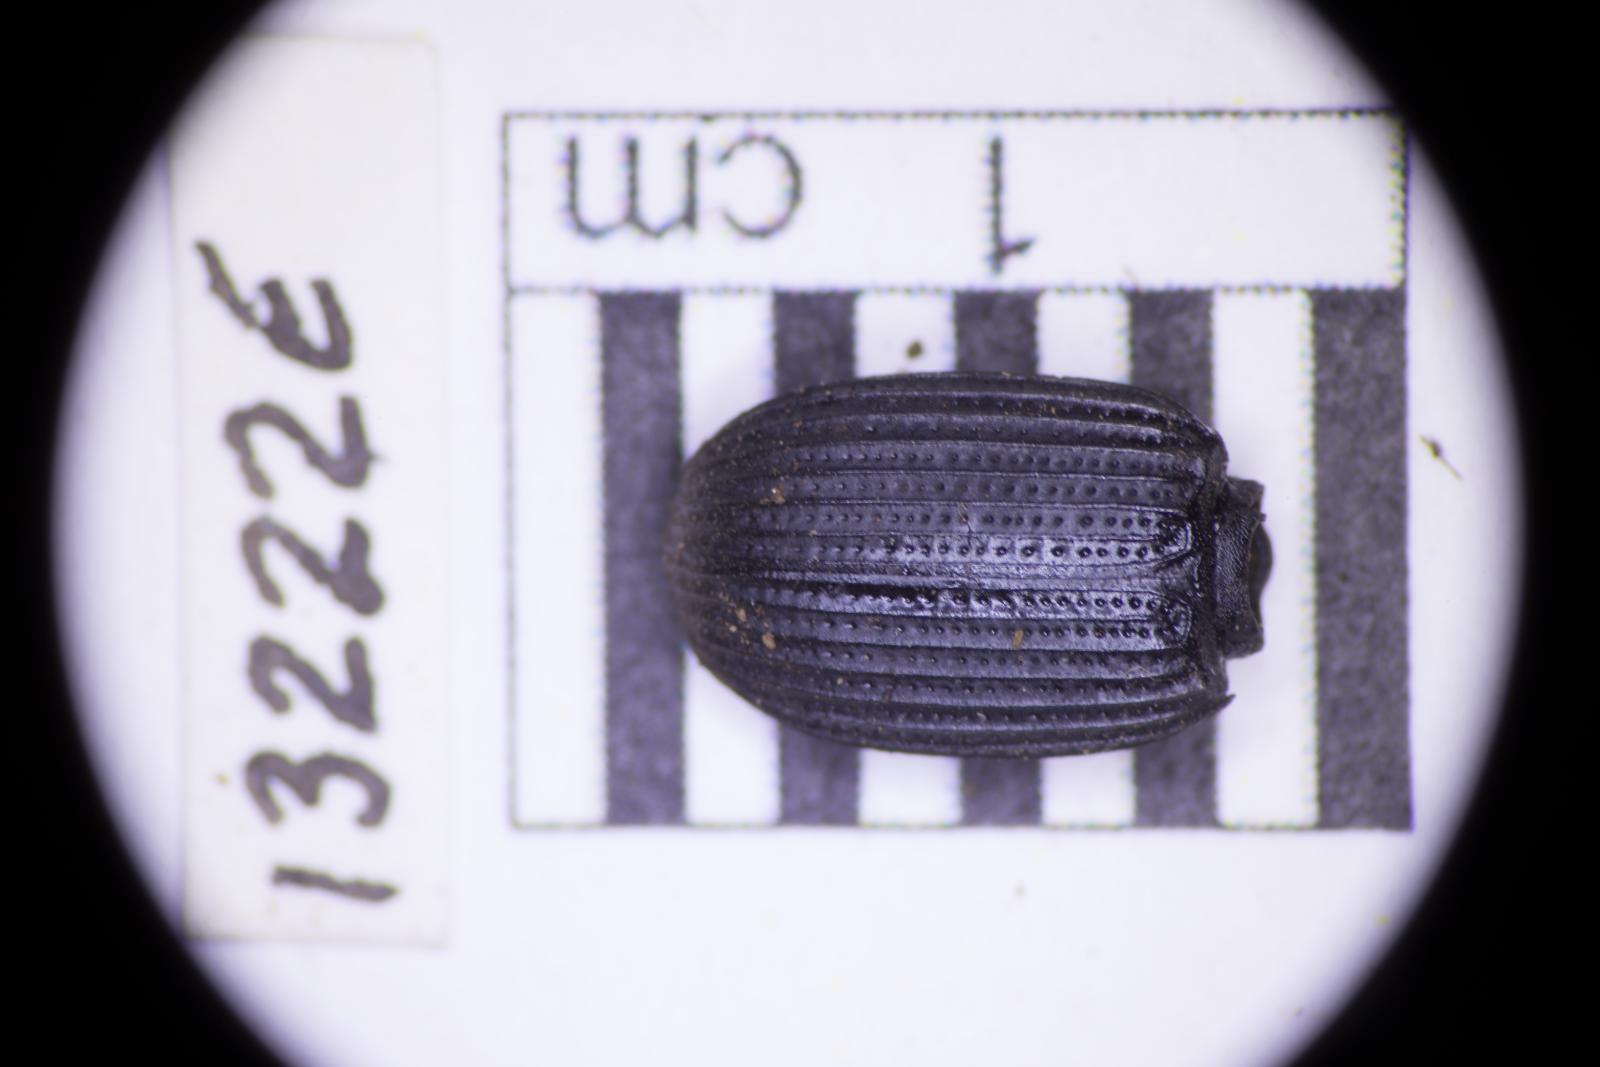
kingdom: Animalia
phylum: Arthropoda
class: Insecta
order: Coleoptera
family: Tenebrionidae
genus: Apsena
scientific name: Apsena laticornis
